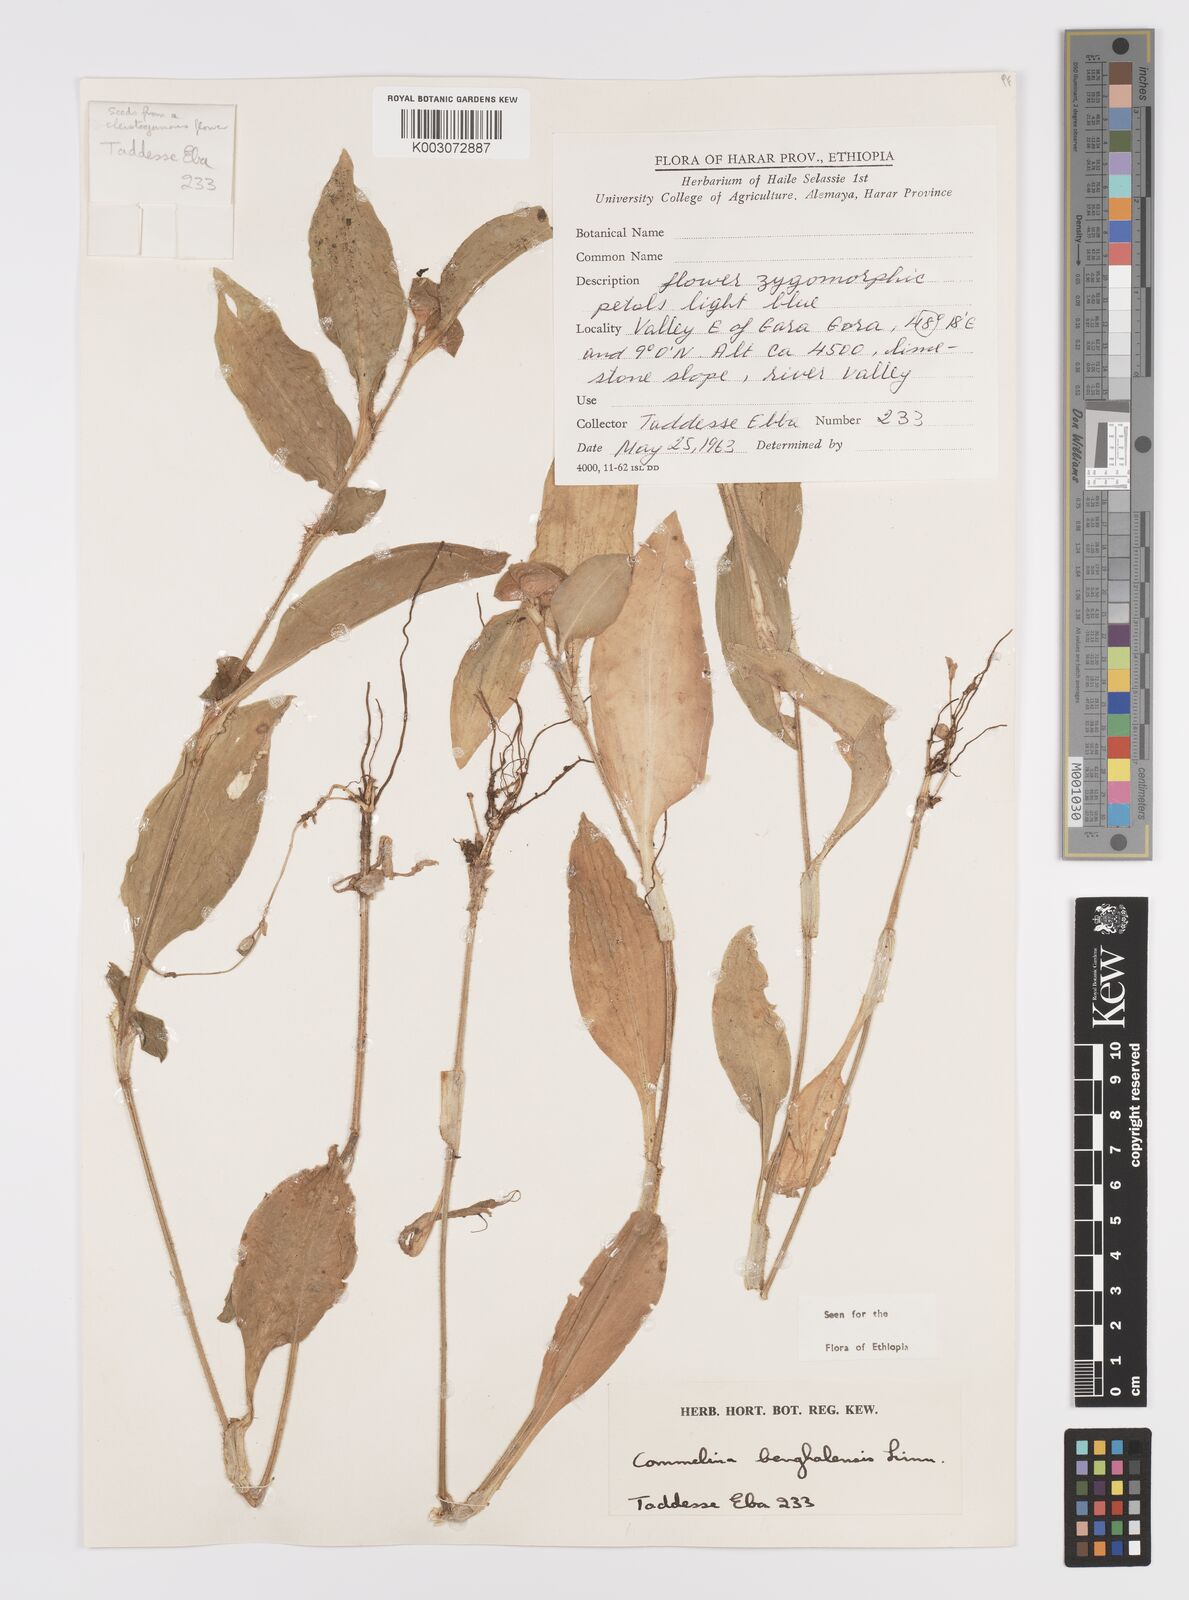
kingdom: Plantae
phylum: Tracheophyta
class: Liliopsida
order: Commelinales
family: Commelinaceae
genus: Commelina
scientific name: Commelina benghalensis
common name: Jio
